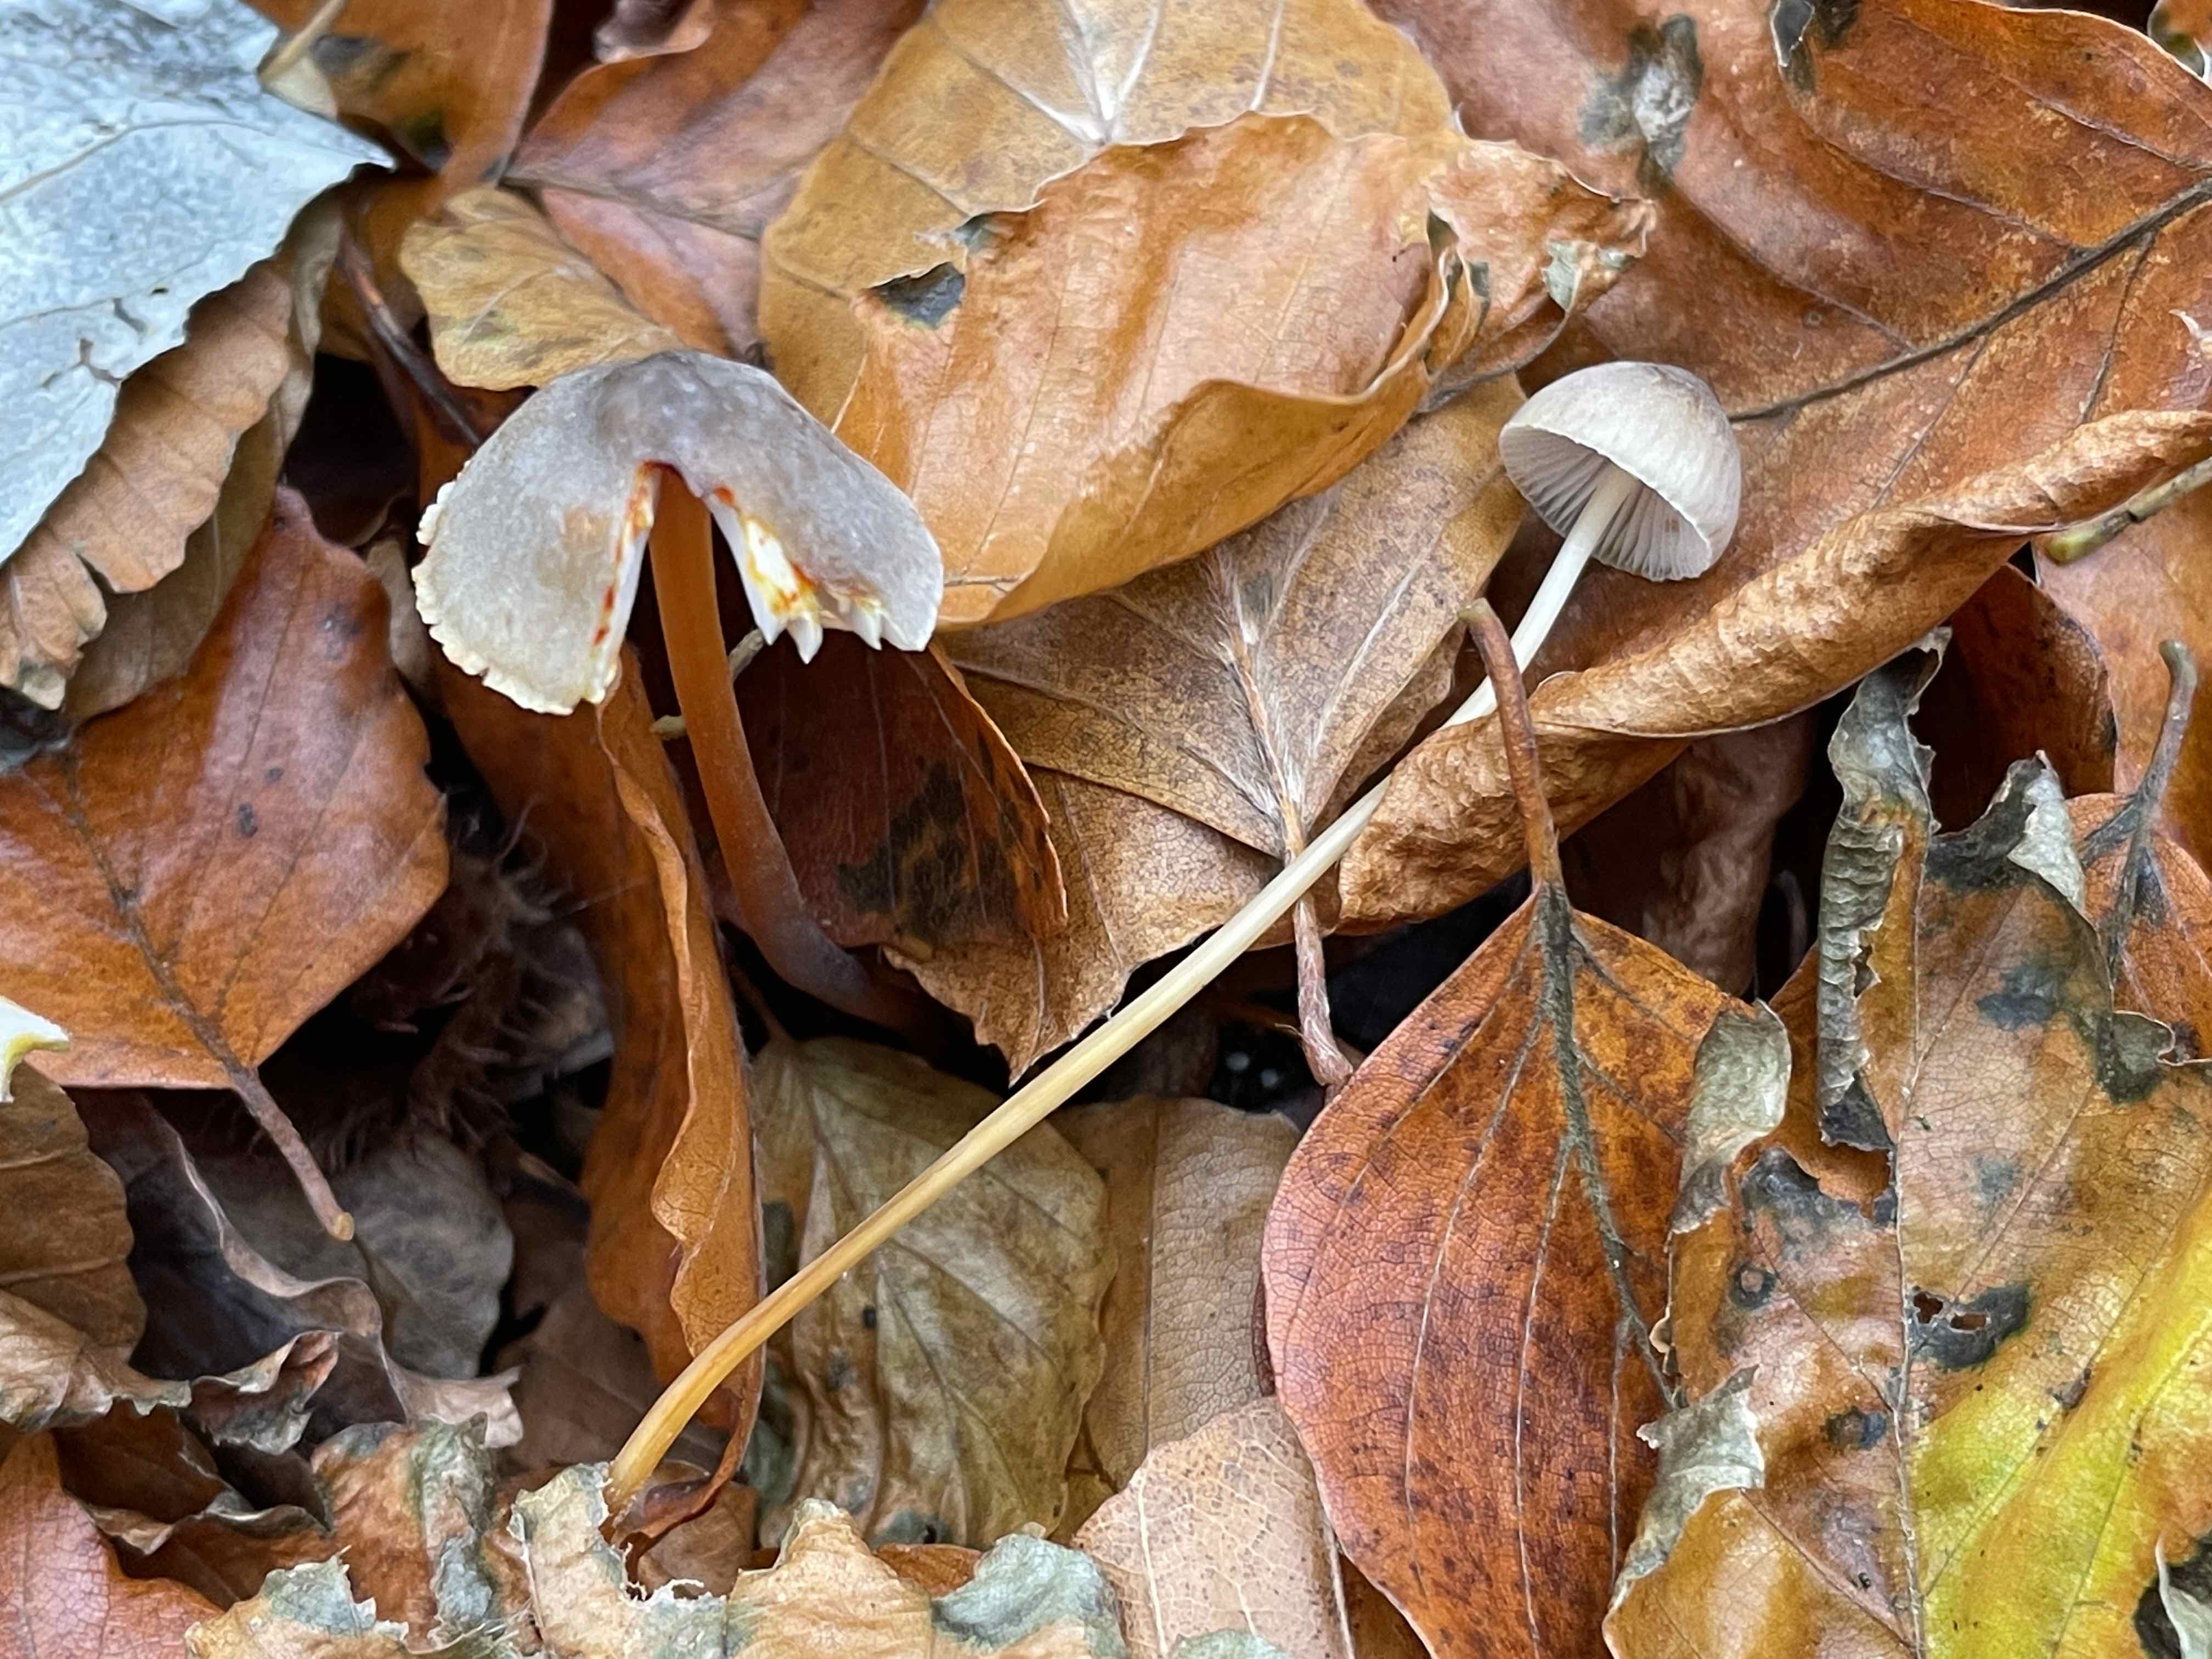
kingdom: Fungi
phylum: Basidiomycota
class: Agaricomycetes
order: Agaricales
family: Mycenaceae
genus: Mycena
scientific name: Mycena crocata
